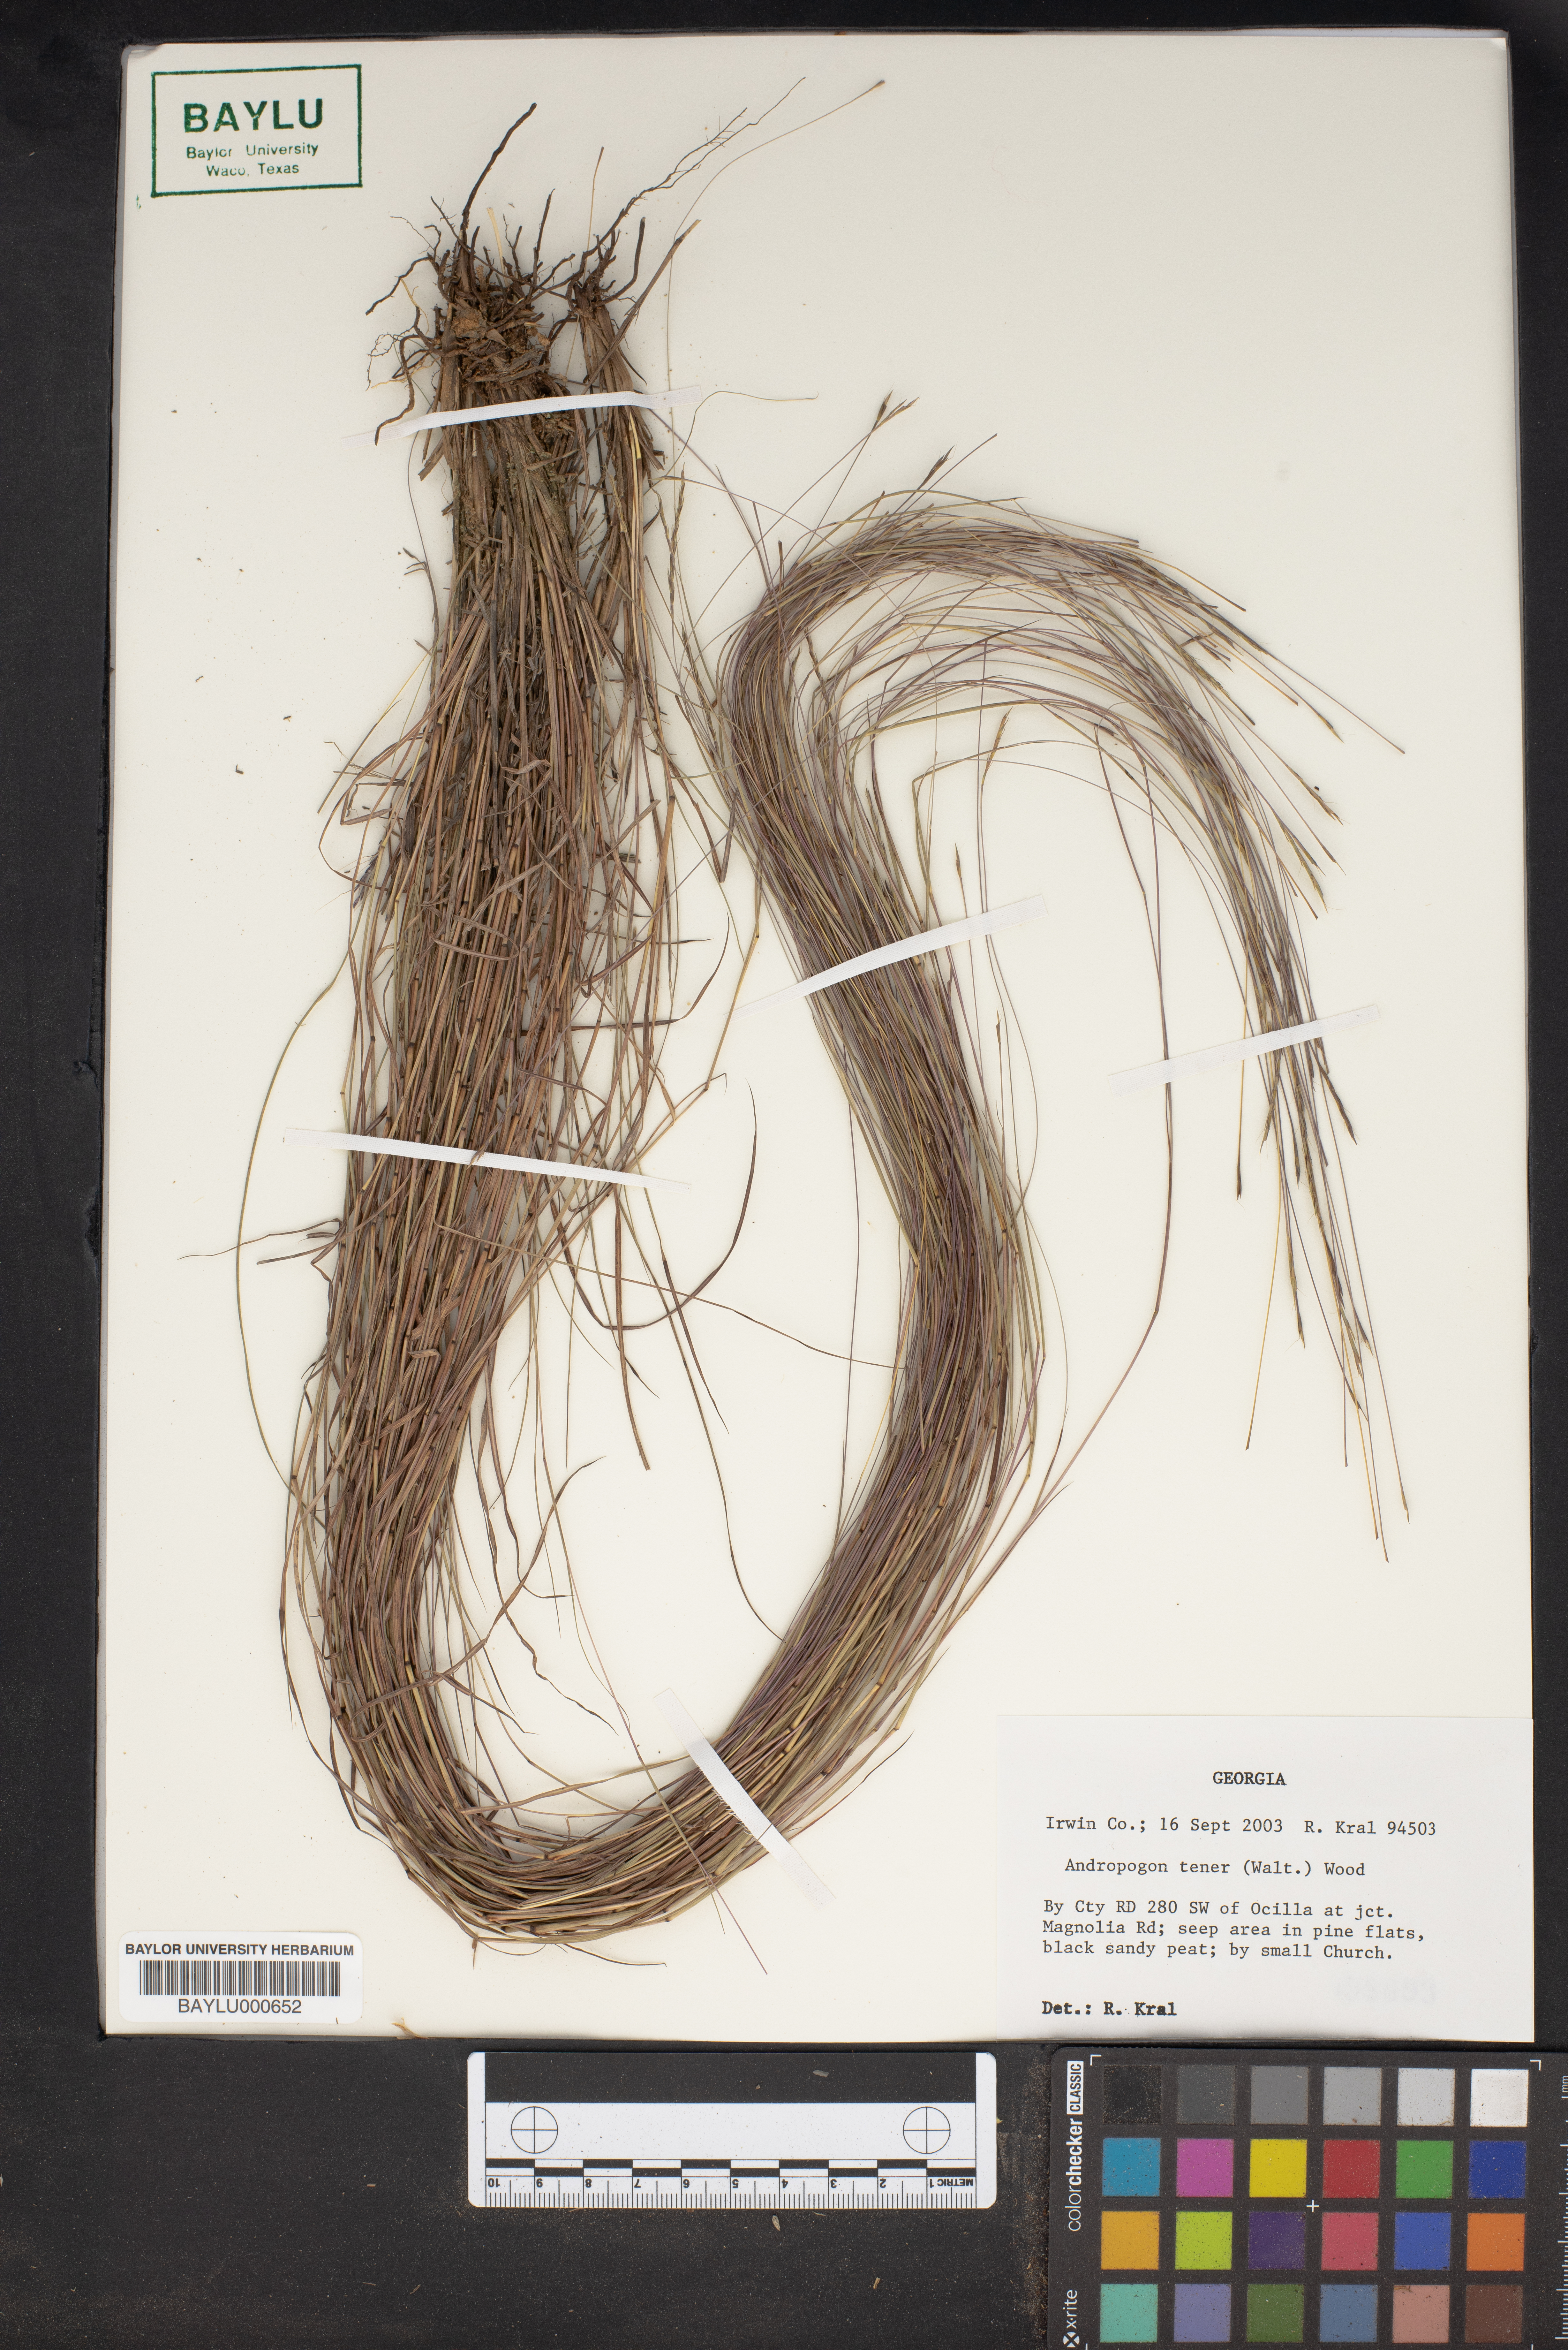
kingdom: Plantae
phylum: Tracheophyta
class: Liliopsida
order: Poales
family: Poaceae
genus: Andropogon
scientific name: Andropogon tener
